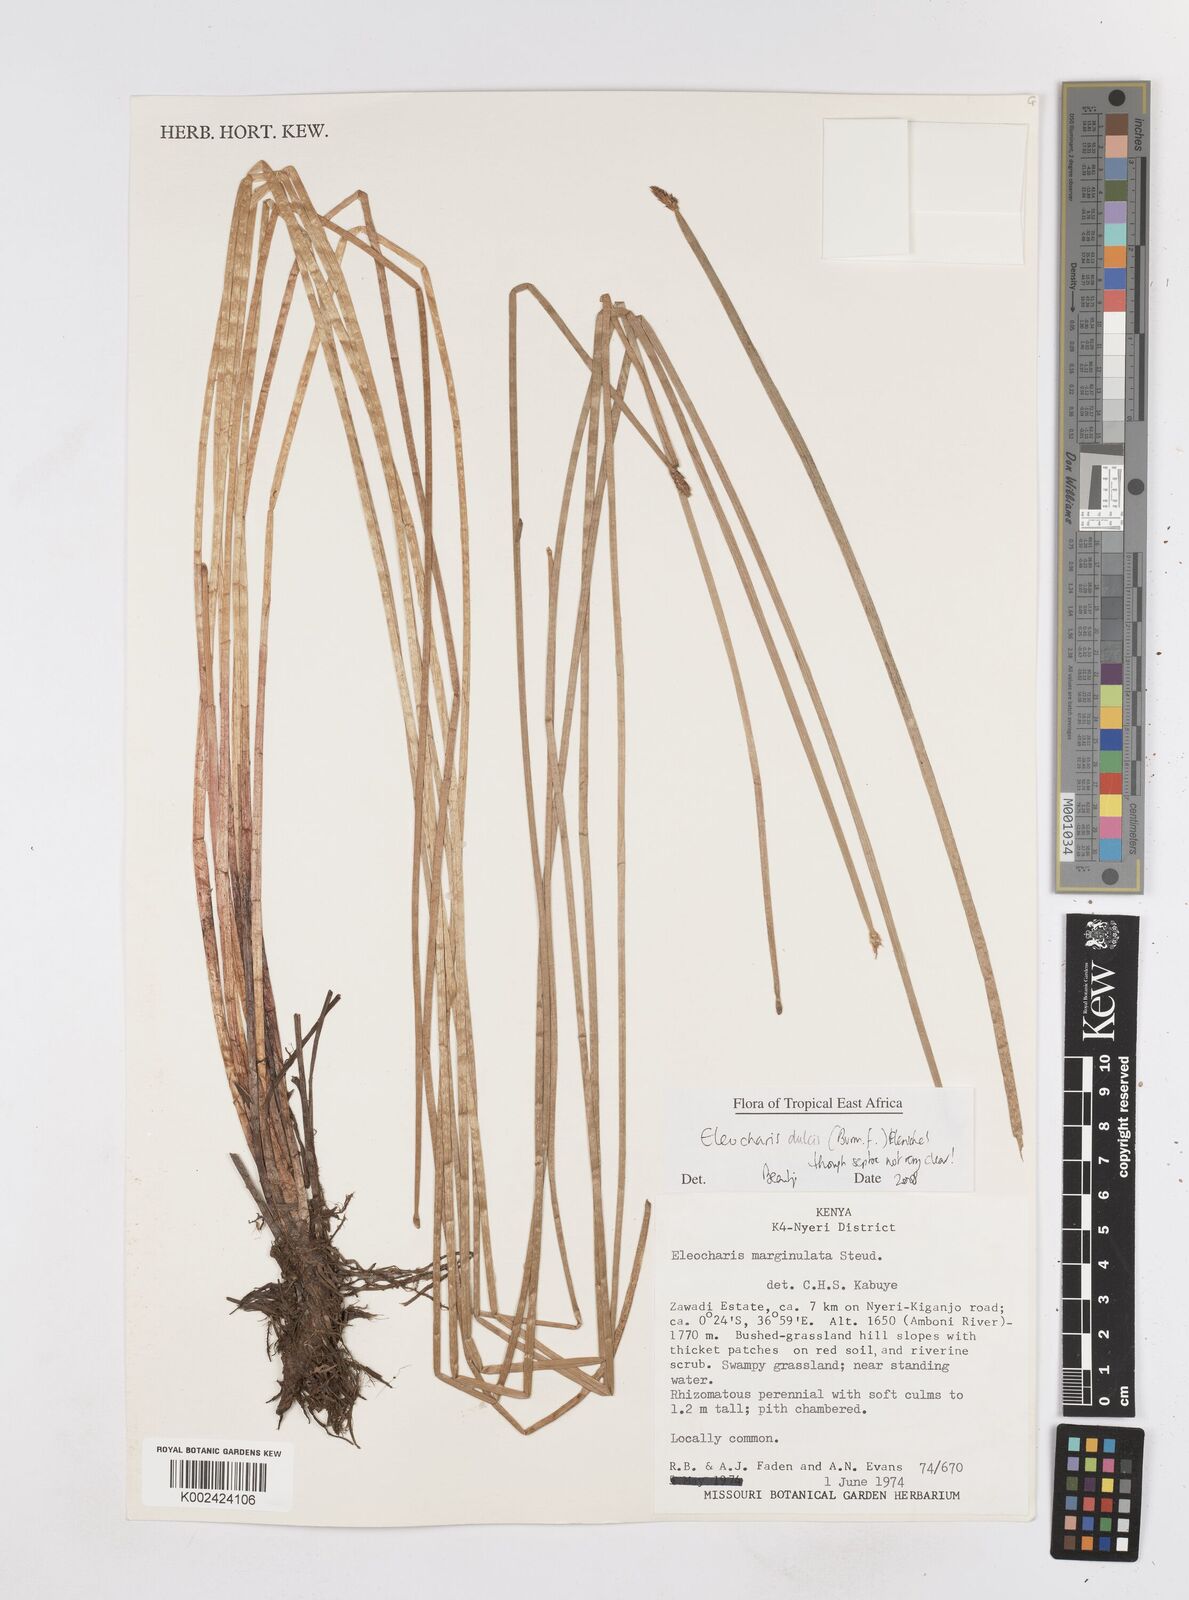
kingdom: Plantae
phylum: Tracheophyta
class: Liliopsida
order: Poales
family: Cyperaceae
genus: Eleocharis
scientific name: Eleocharis dulcis
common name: Chinese water chestnut
